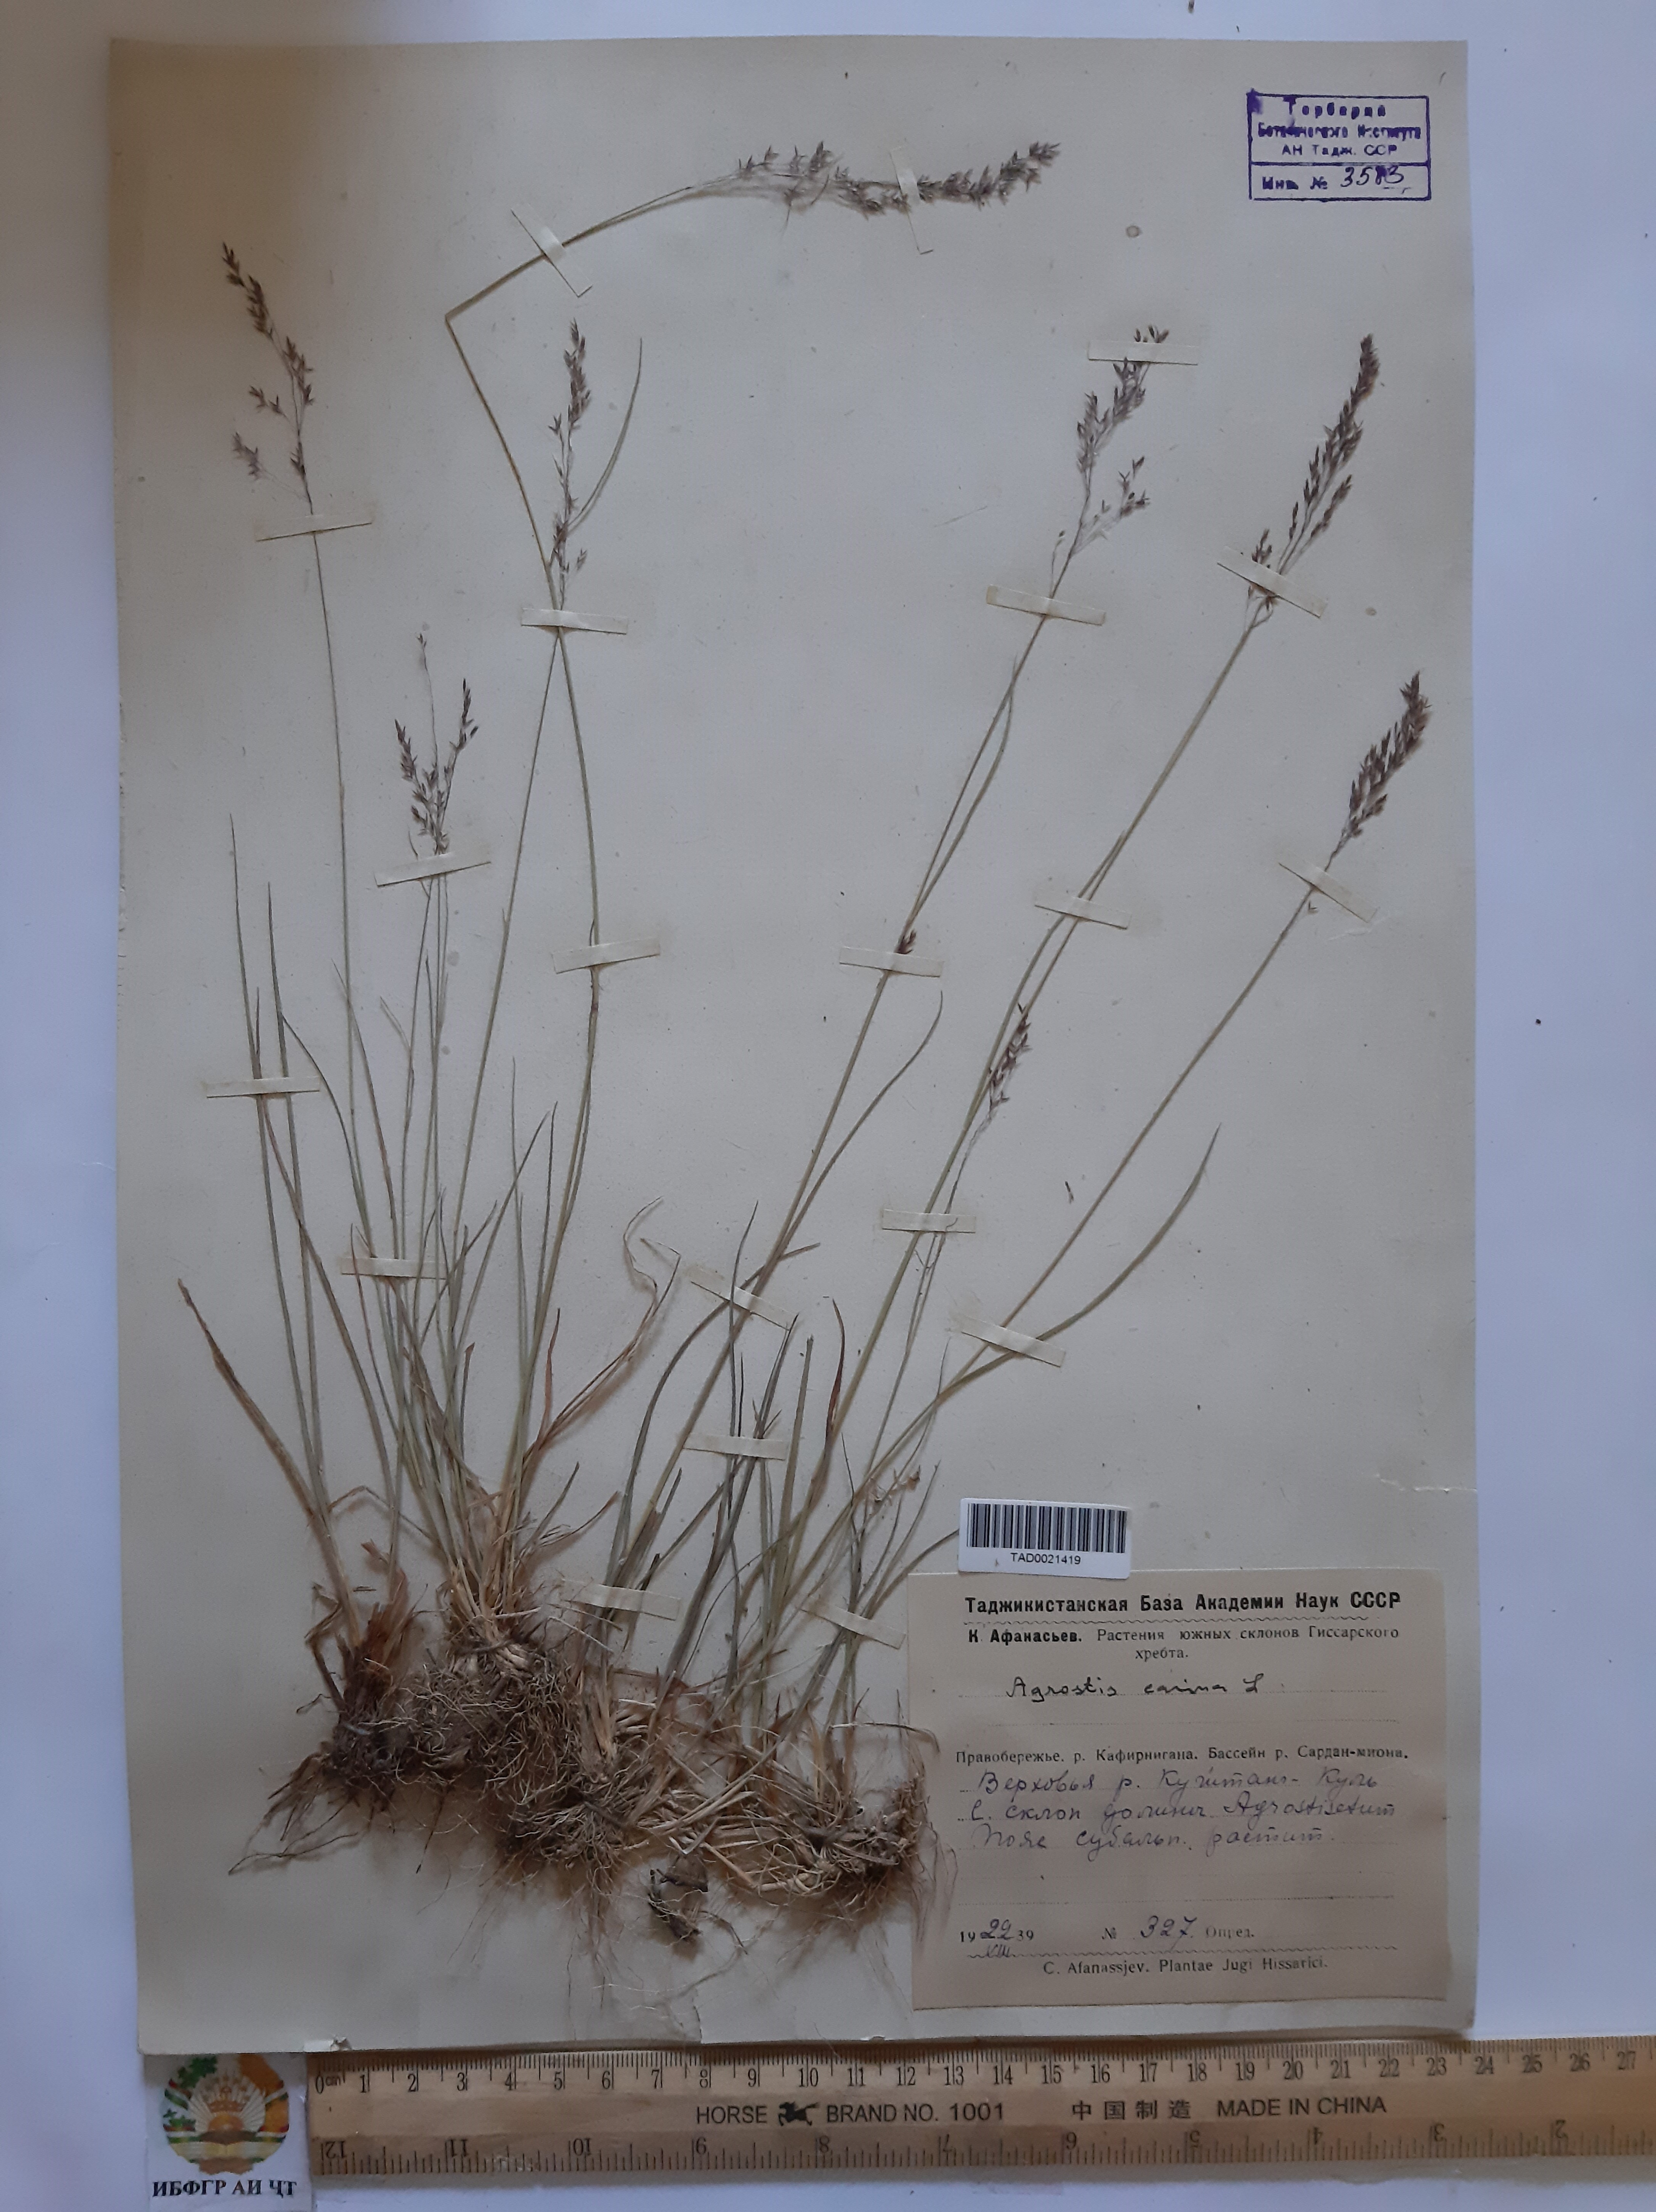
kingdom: Plantae
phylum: Tracheophyta
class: Liliopsida
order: Poales
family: Poaceae
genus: Agrostis
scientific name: Agrostis canina
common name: Velvet bent
